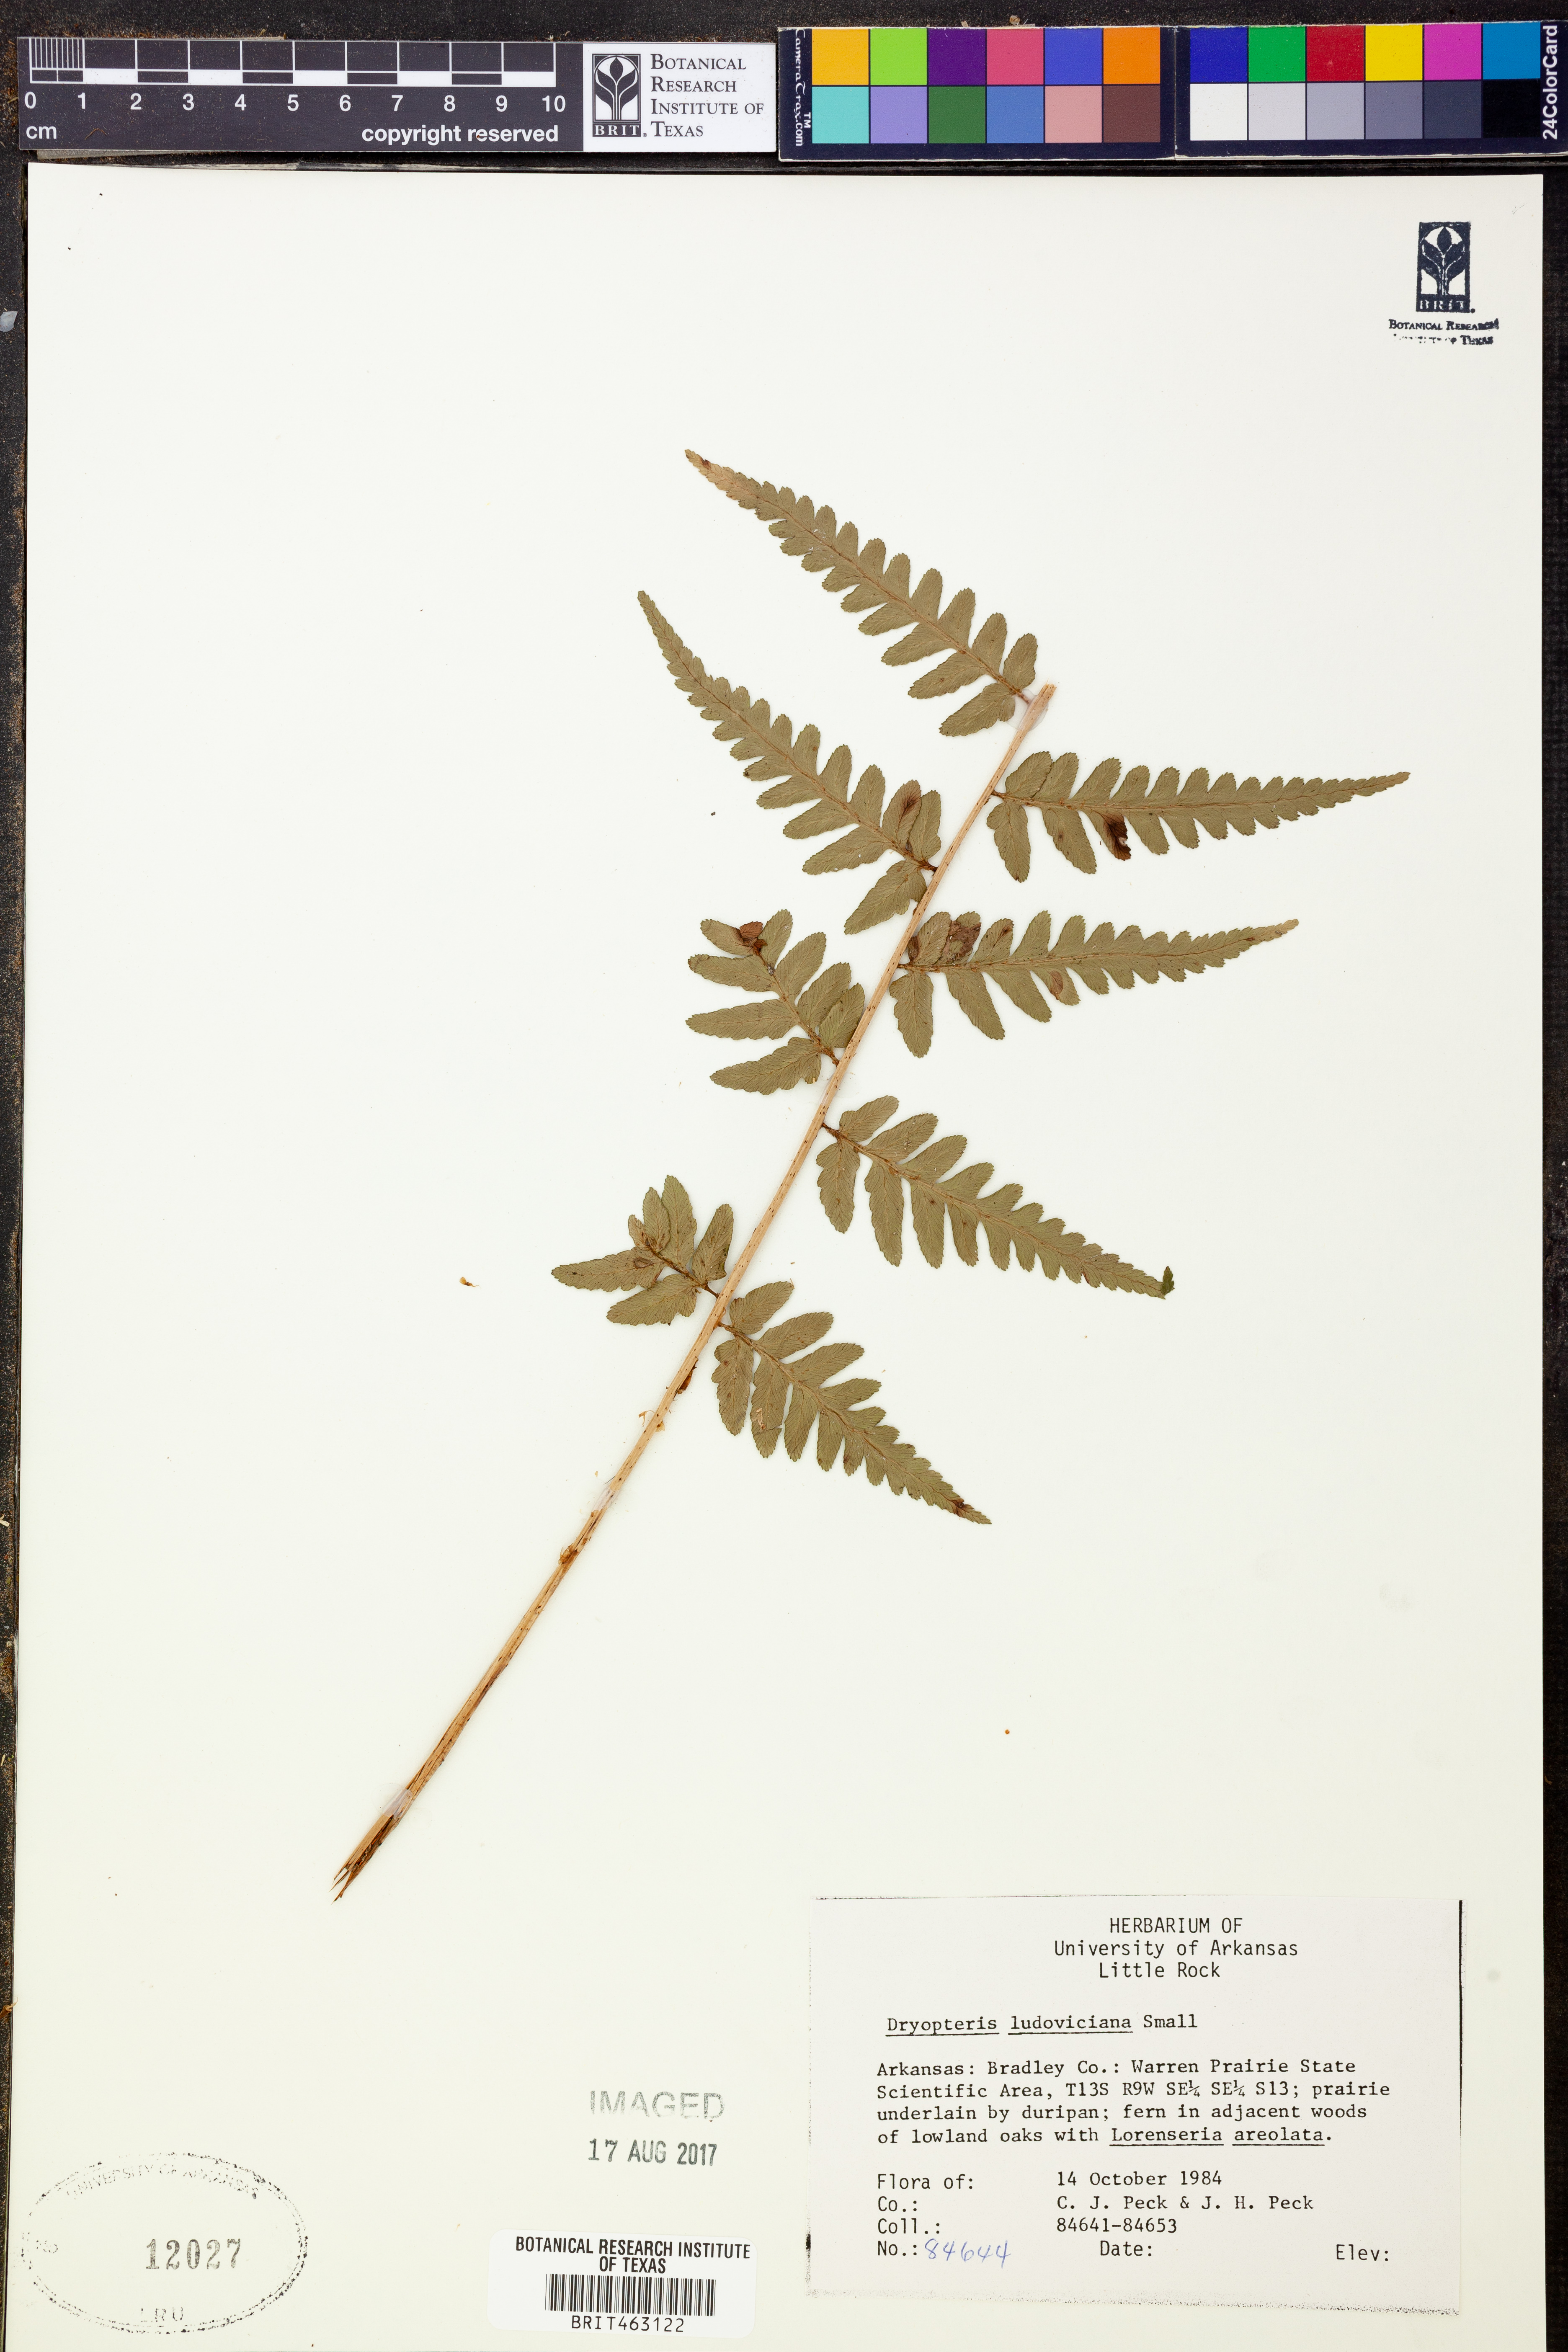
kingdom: Plantae
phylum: Tracheophyta
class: Polypodiopsida
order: Polypodiales
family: Dryopteridaceae
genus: Dryopteris
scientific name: Dryopteris ludoviciana
